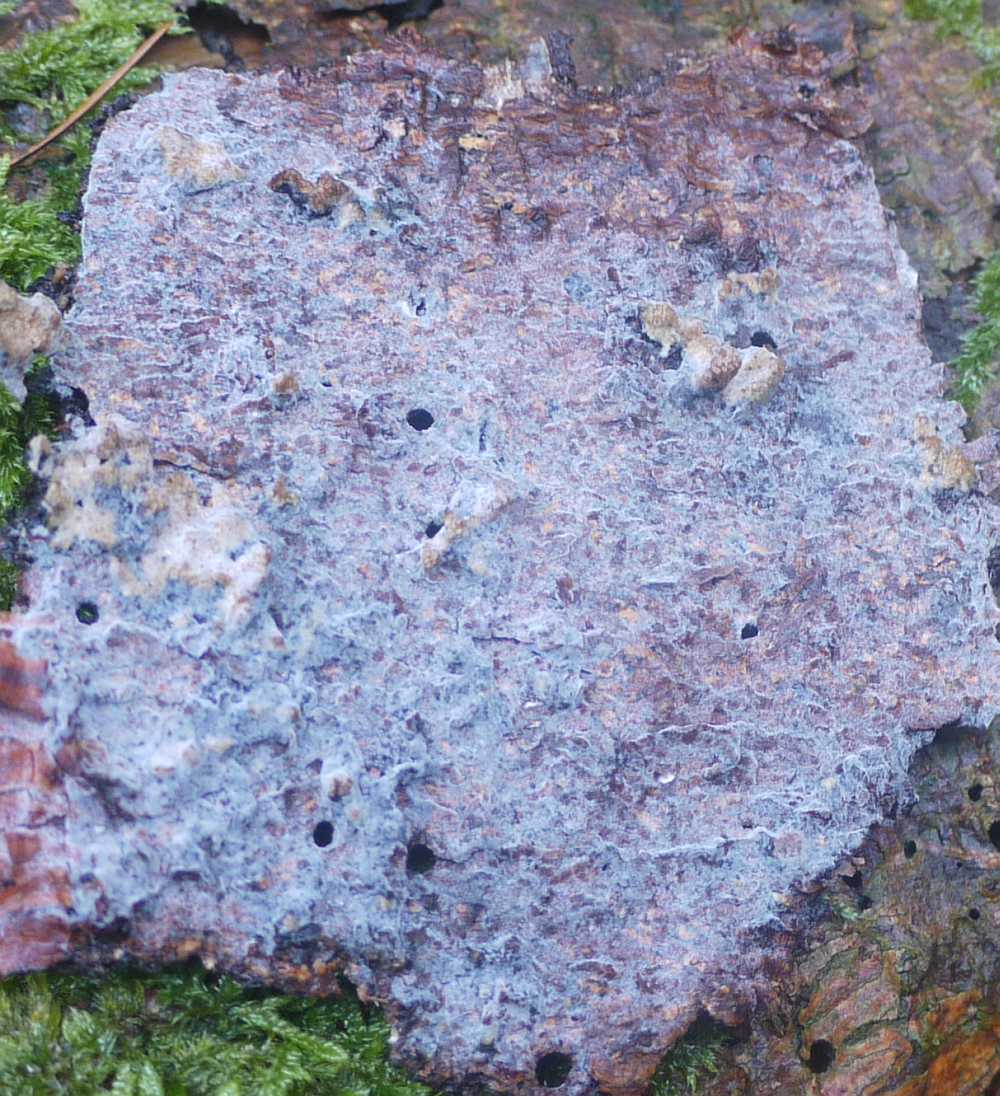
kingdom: Fungi
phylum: Basidiomycota
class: Agaricomycetes
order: Cantharellales
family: Botryobasidiaceae
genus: Botryobasidium
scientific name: Botryobasidium vagum
